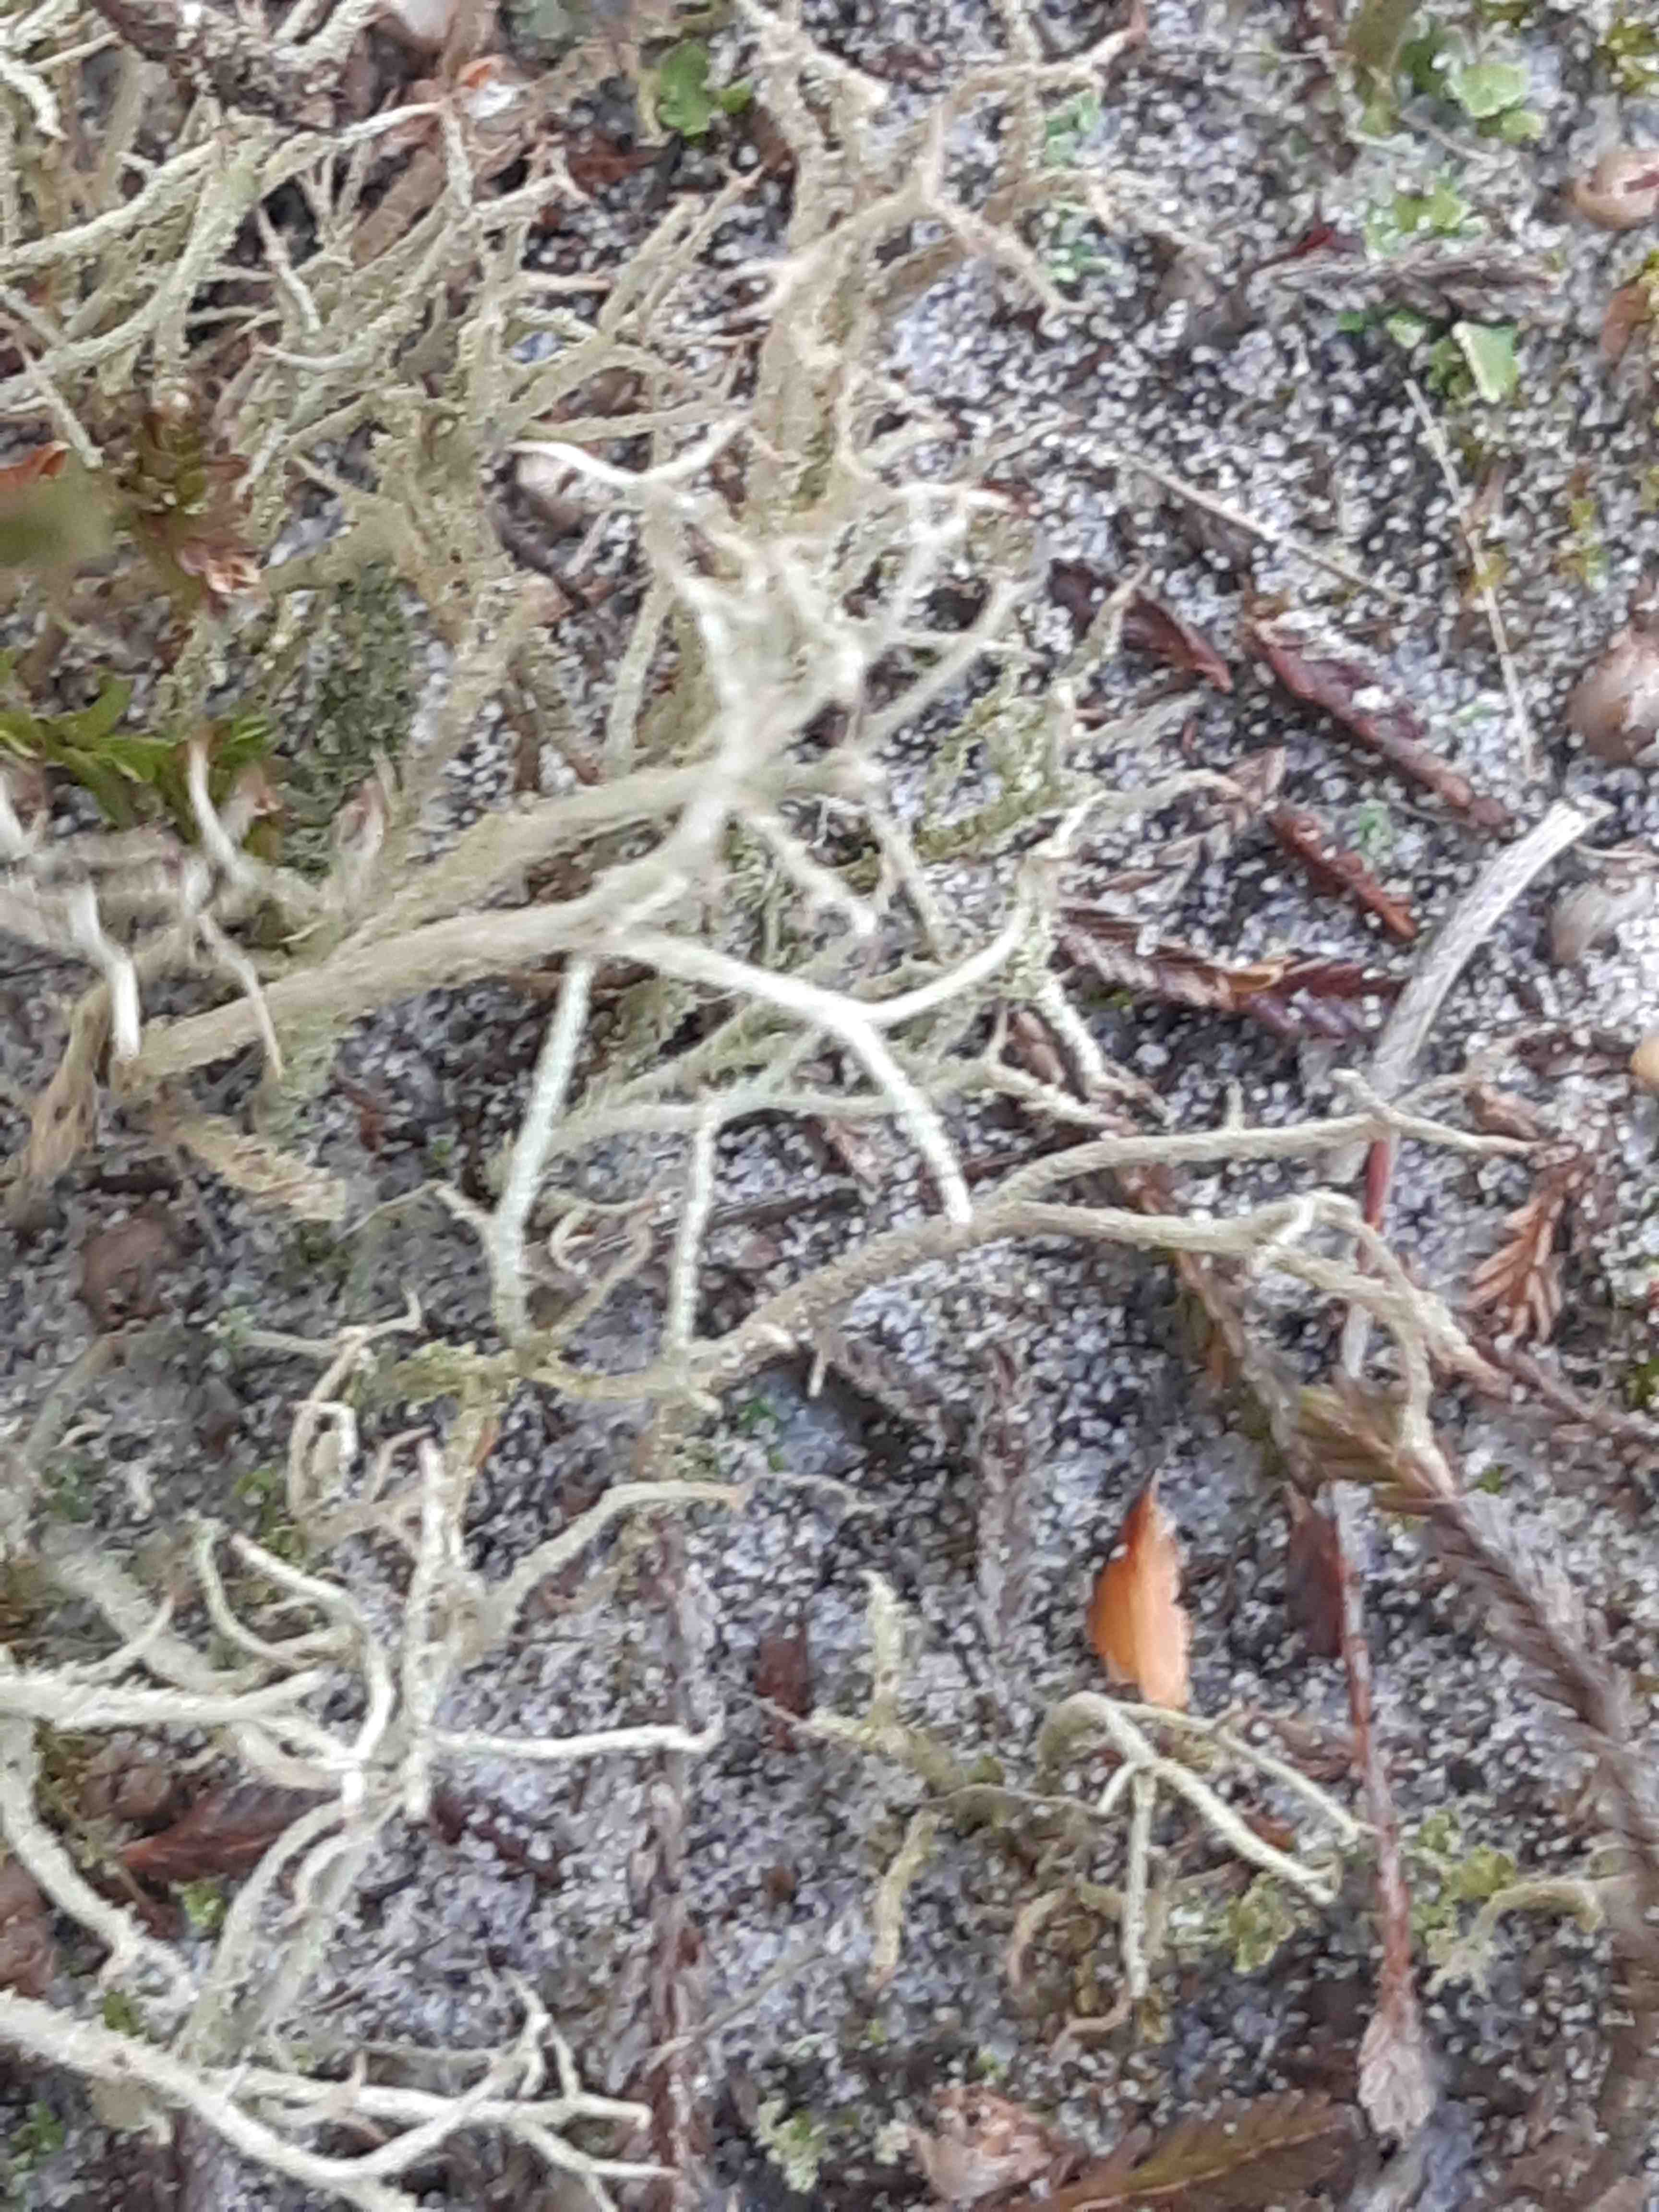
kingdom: Fungi
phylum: Ascomycota
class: Lecanoromycetes
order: Lecanorales
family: Cladoniaceae
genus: Cladonia
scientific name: Cladonia scabriuscula
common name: ru bægerlav
